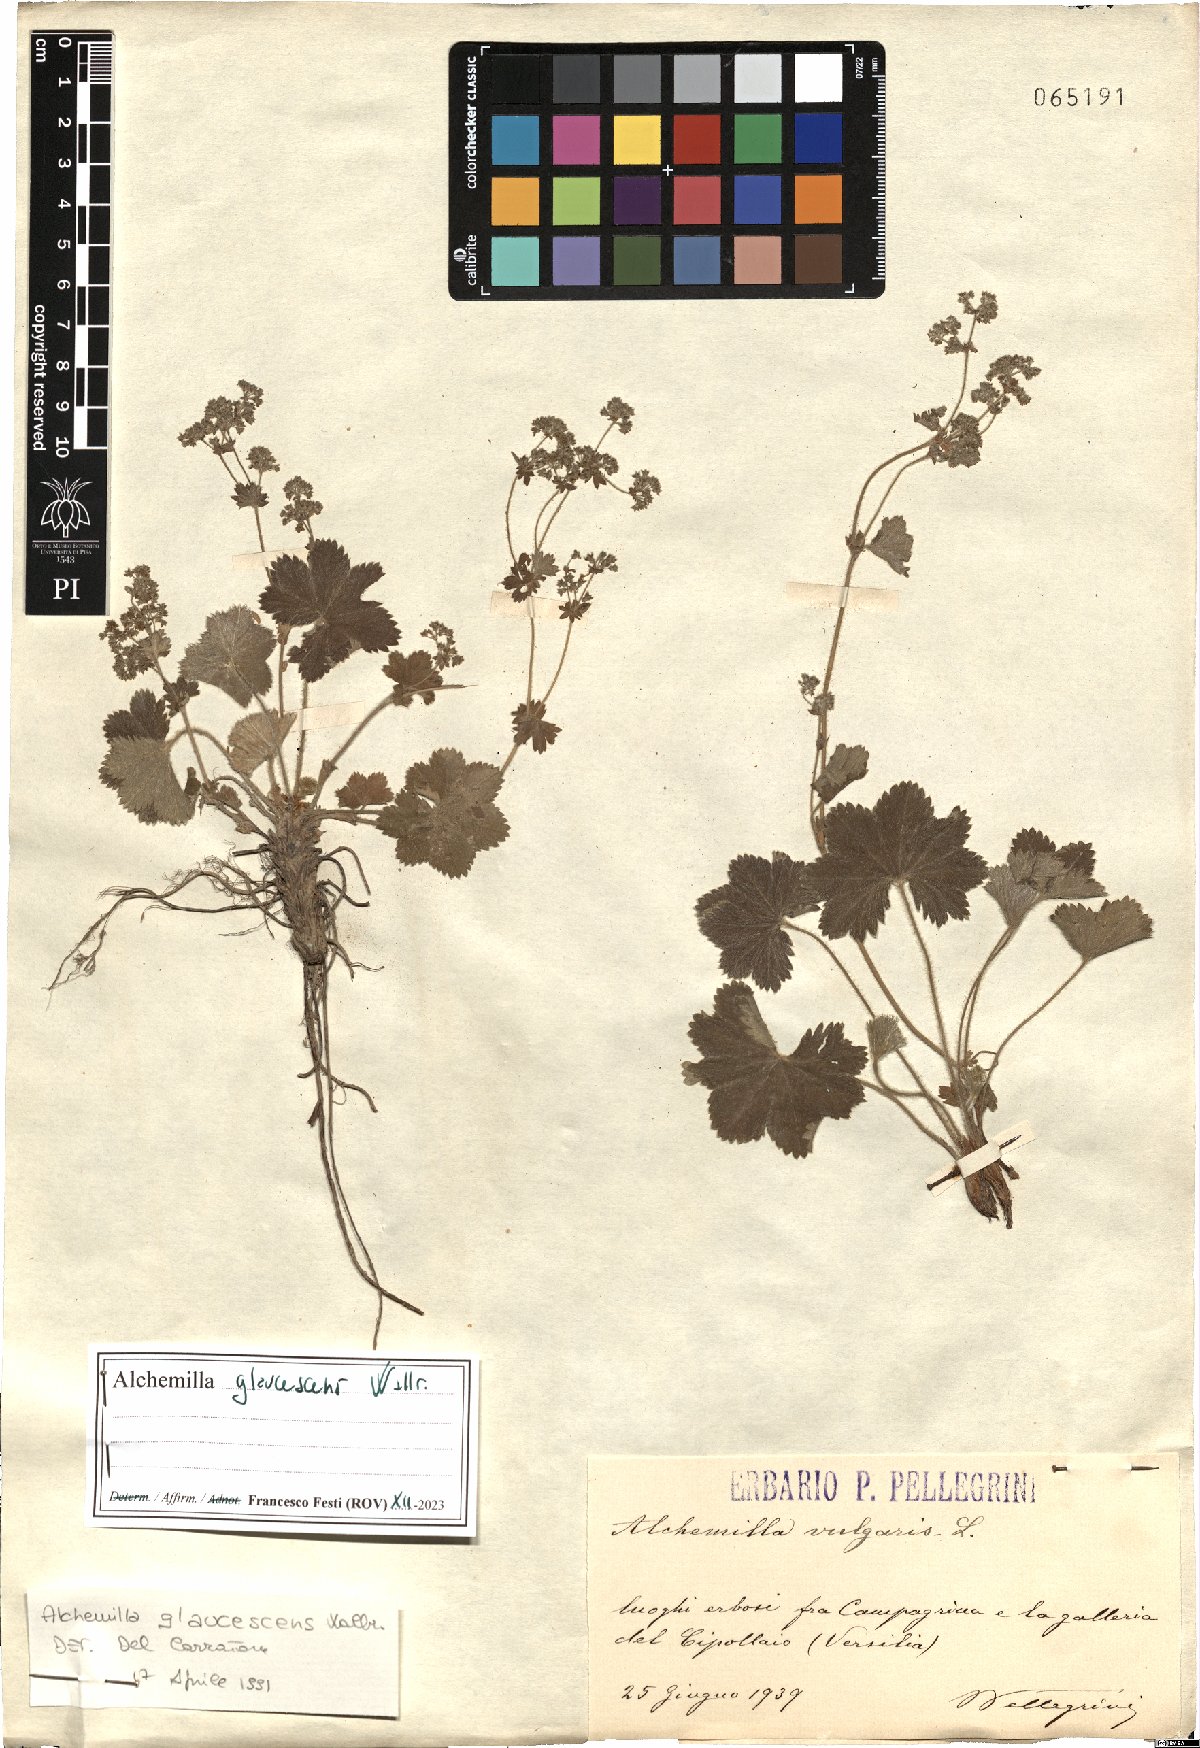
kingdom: Plantae
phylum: Tracheophyta
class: Magnoliopsida
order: Rosales
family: Rosaceae
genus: Alchemilla
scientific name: Alchemilla glaucescens
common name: Silky lady's mantle
